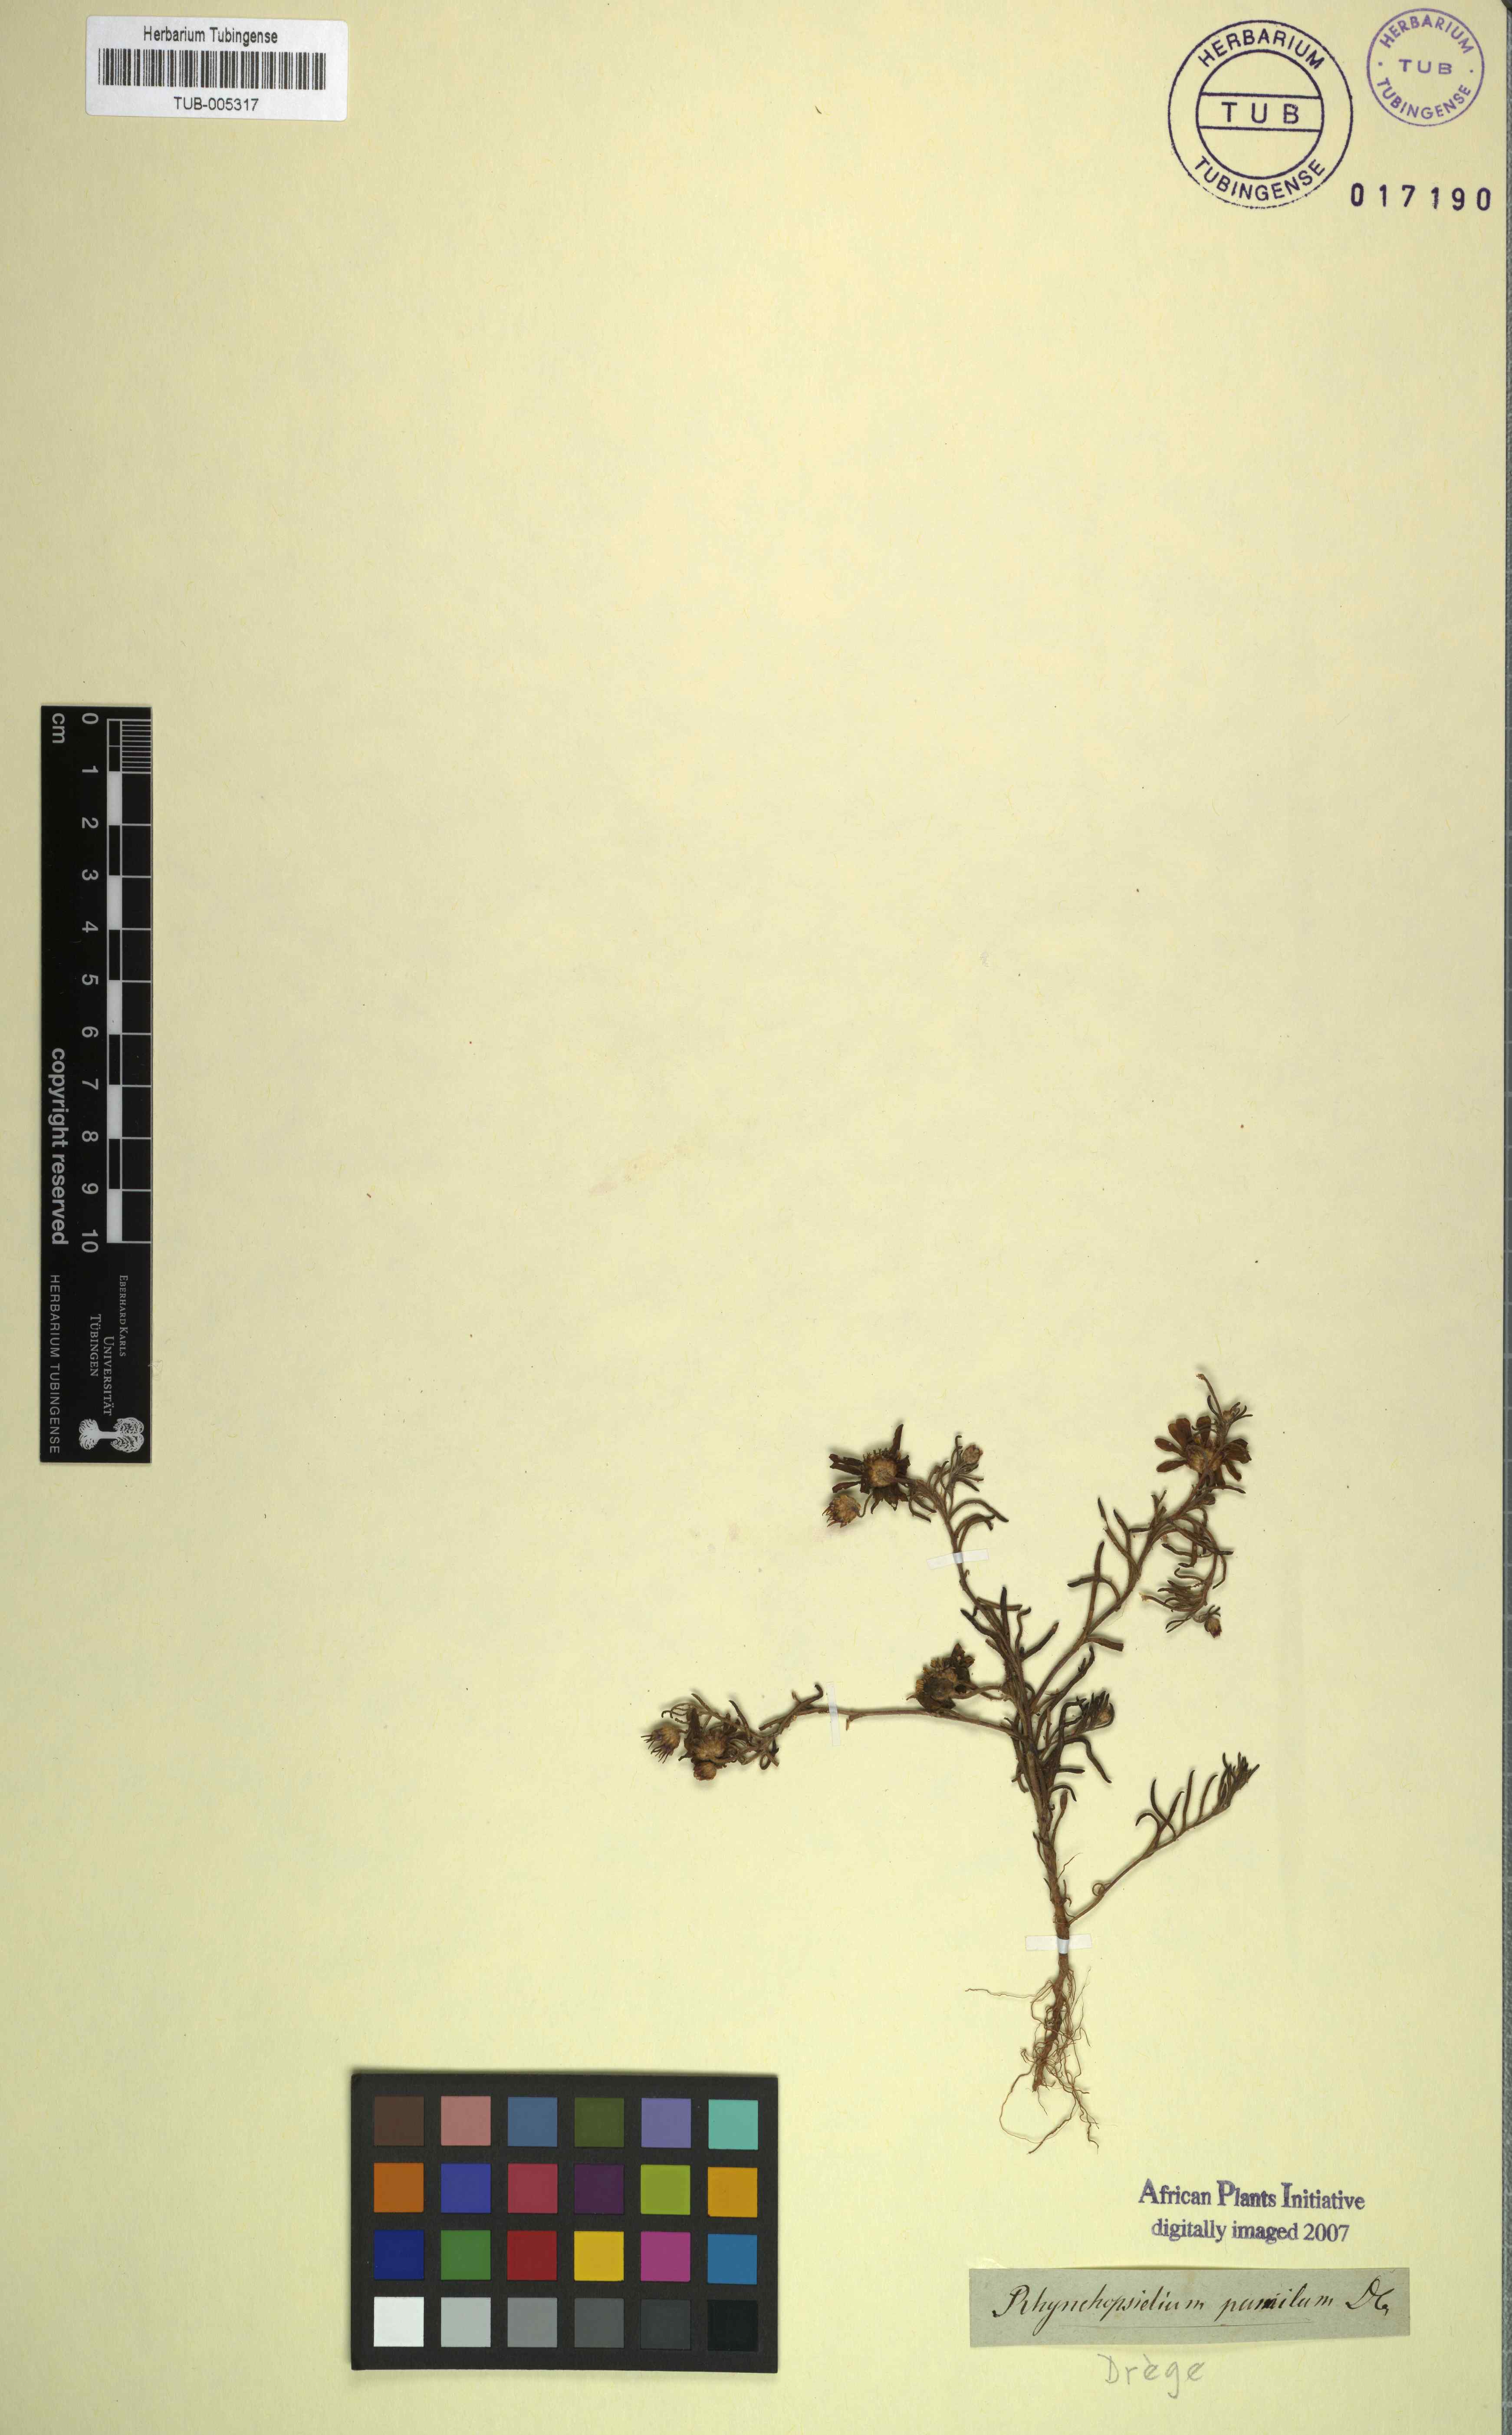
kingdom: Plantae
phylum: Tracheophyta
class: Magnoliopsida
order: Asterales
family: Asteraceae
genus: Rhynchopsidium
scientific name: Rhynchopsidium pumilum
